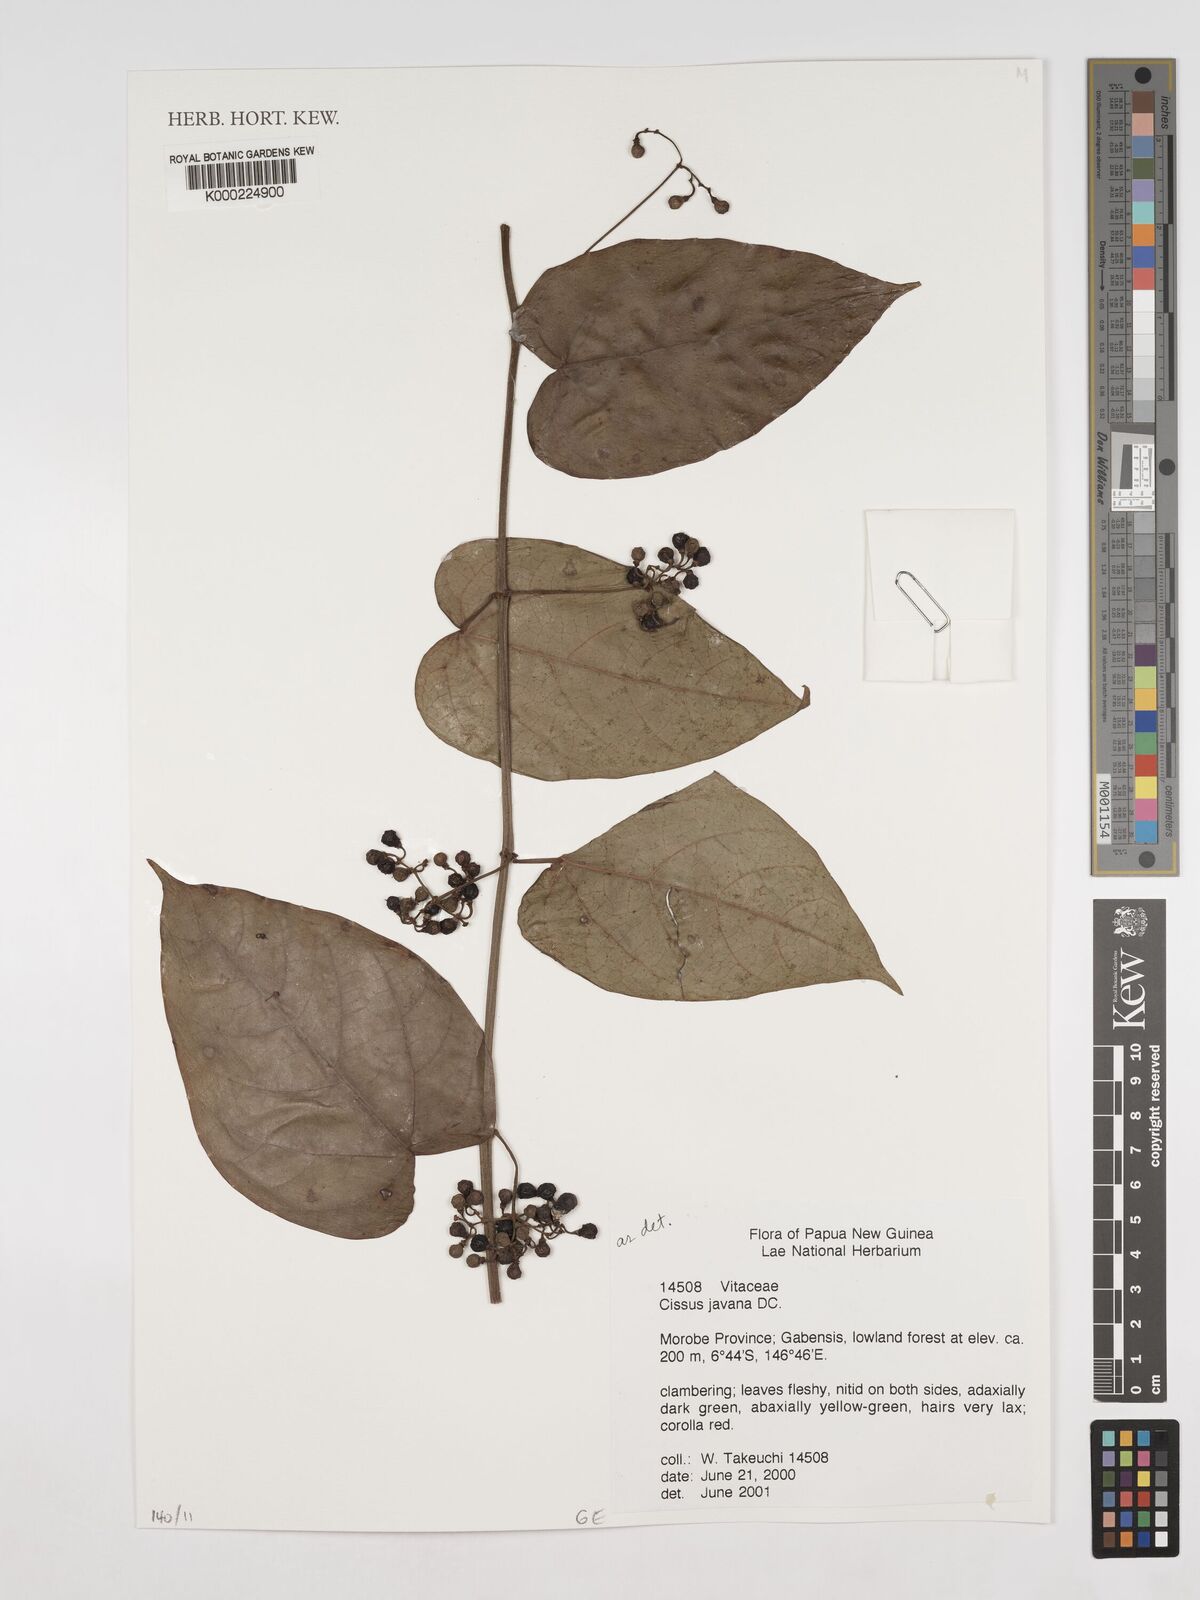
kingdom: Plantae
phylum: Tracheophyta
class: Magnoliopsida
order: Vitales
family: Vitaceae
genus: Cissus
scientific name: Cissus discolor
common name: Climbing-begonia
